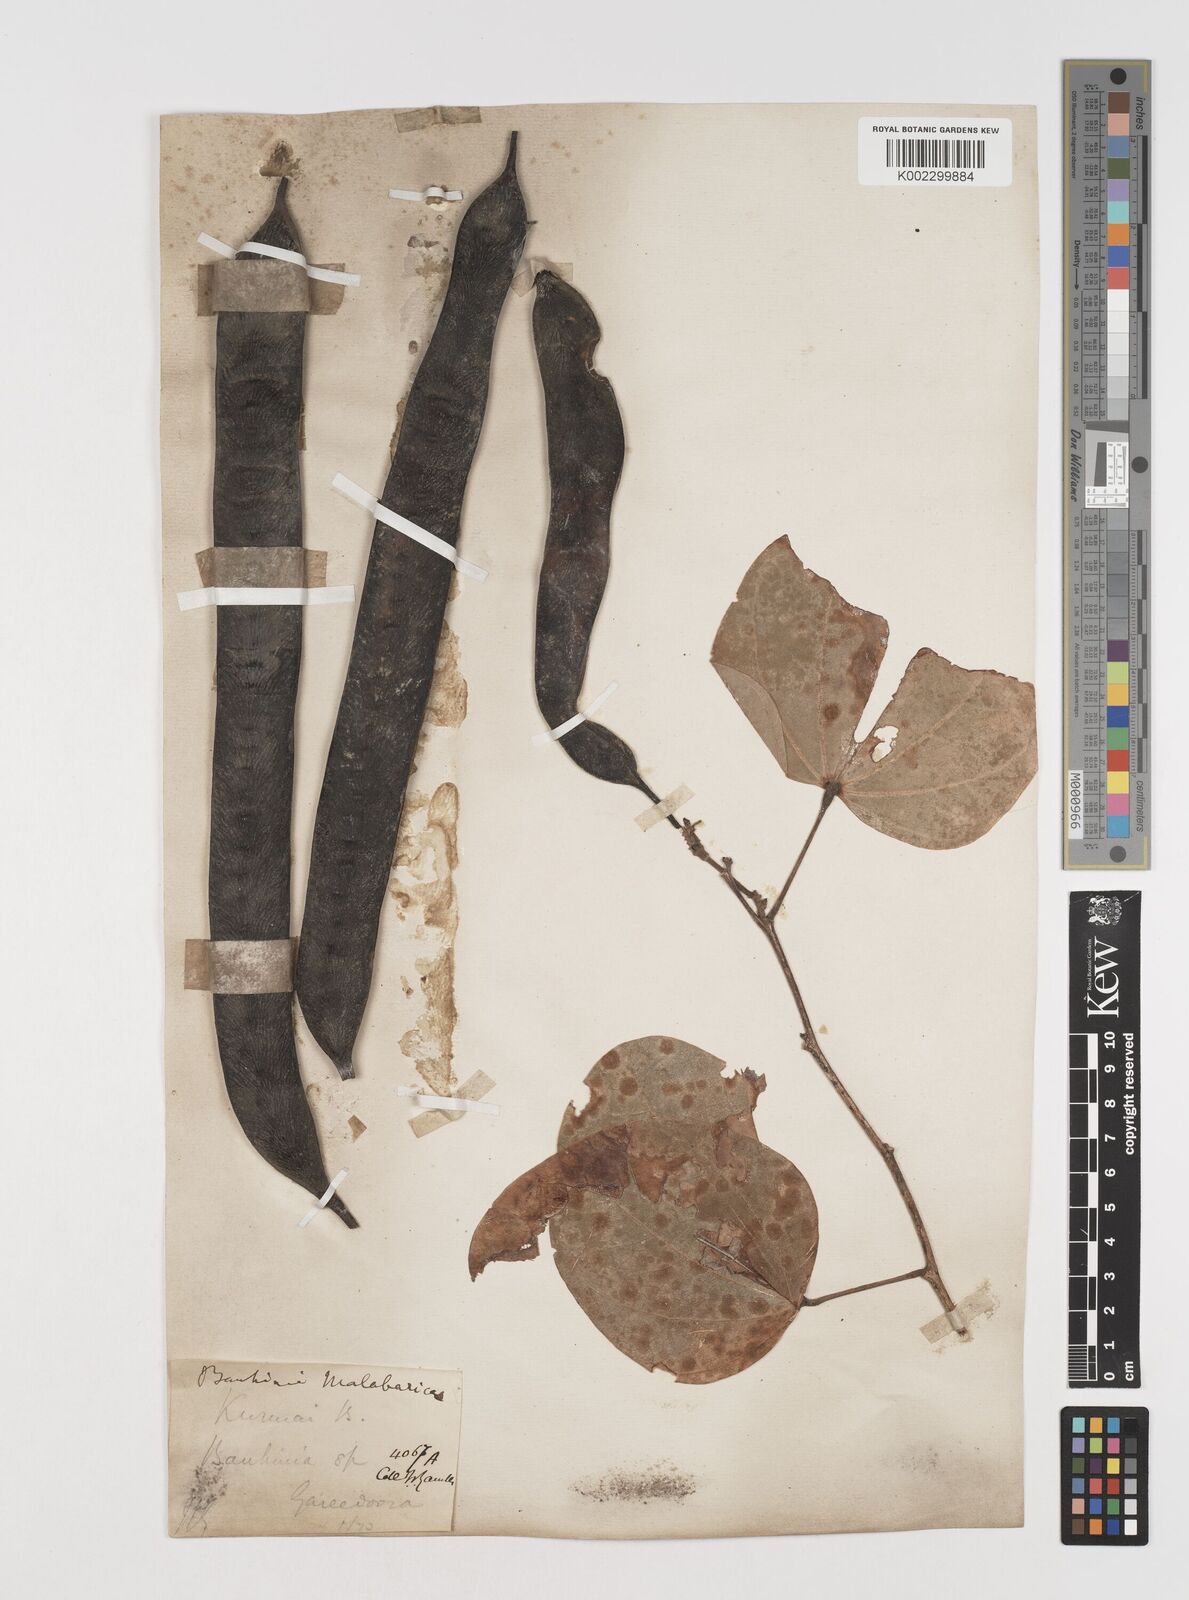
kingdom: Plantae
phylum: Tracheophyta
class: Magnoliopsida
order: Fabales
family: Fabaceae
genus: Piliostigma
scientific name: Piliostigma malabaricum
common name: Malabar bauhinia
